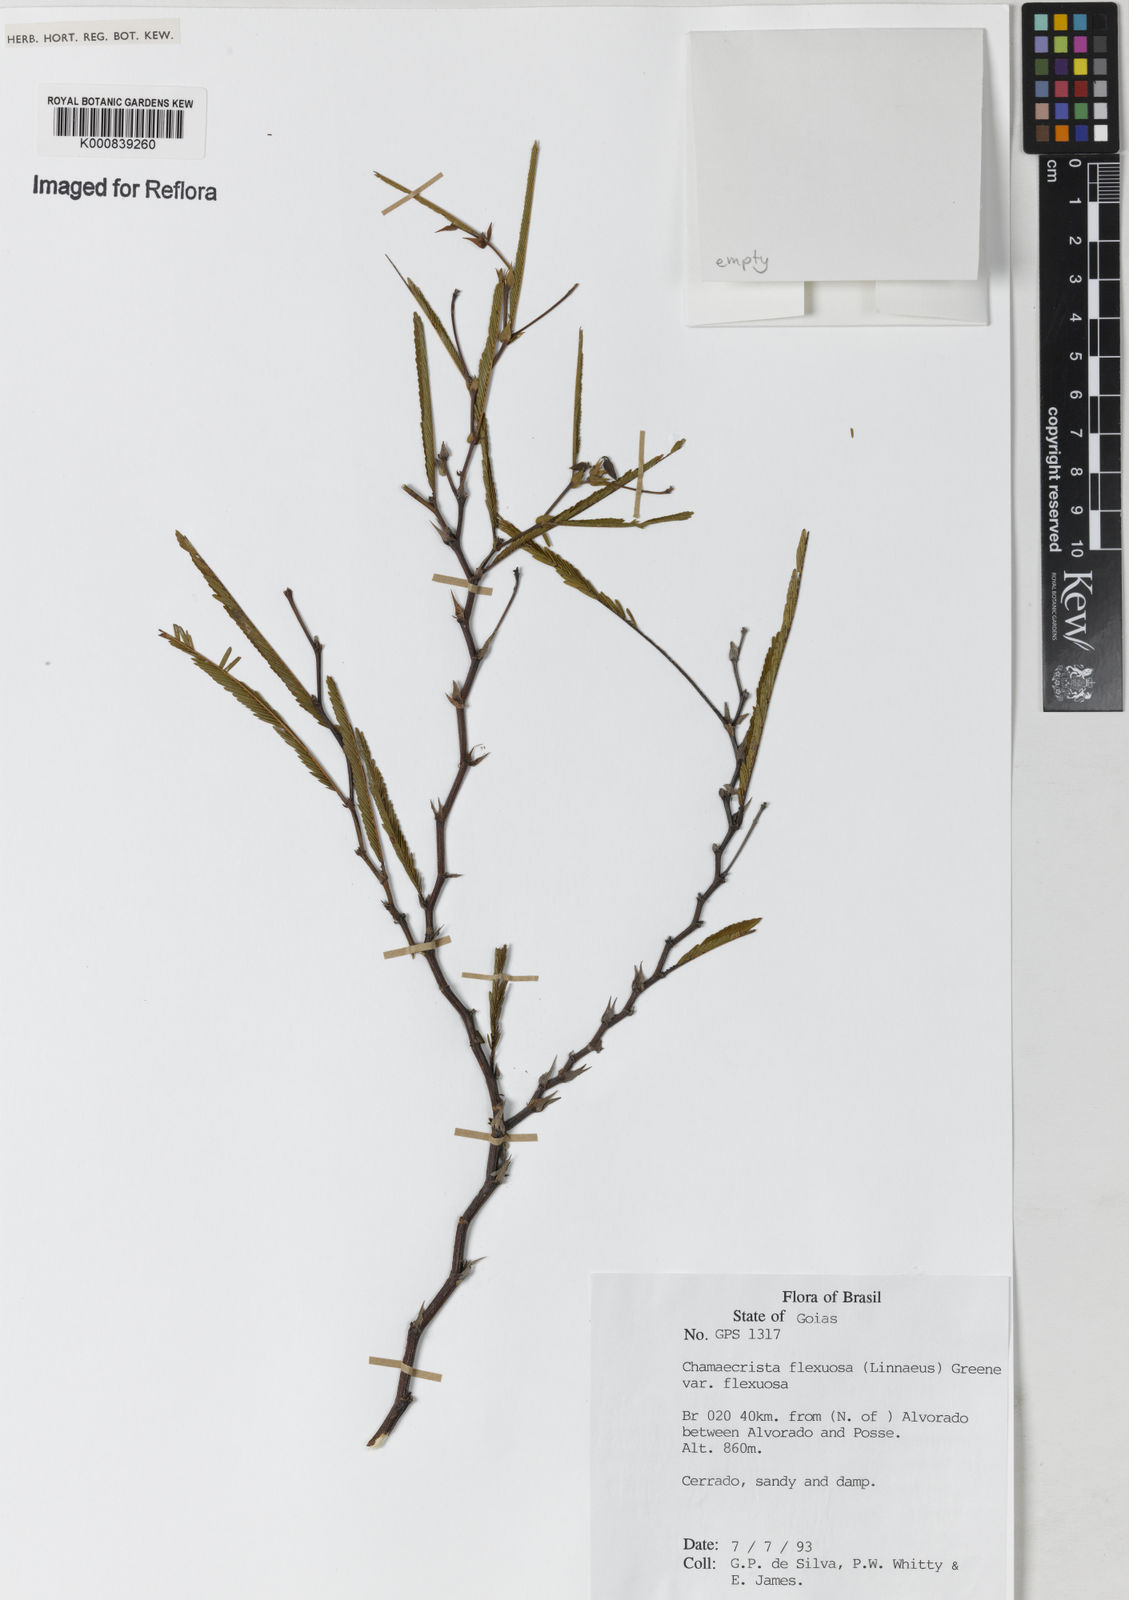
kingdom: Plantae
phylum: Tracheophyta
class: Magnoliopsida
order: Fabales
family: Fabaceae
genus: Chamaecrista
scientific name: Chamaecrista flexuosa
